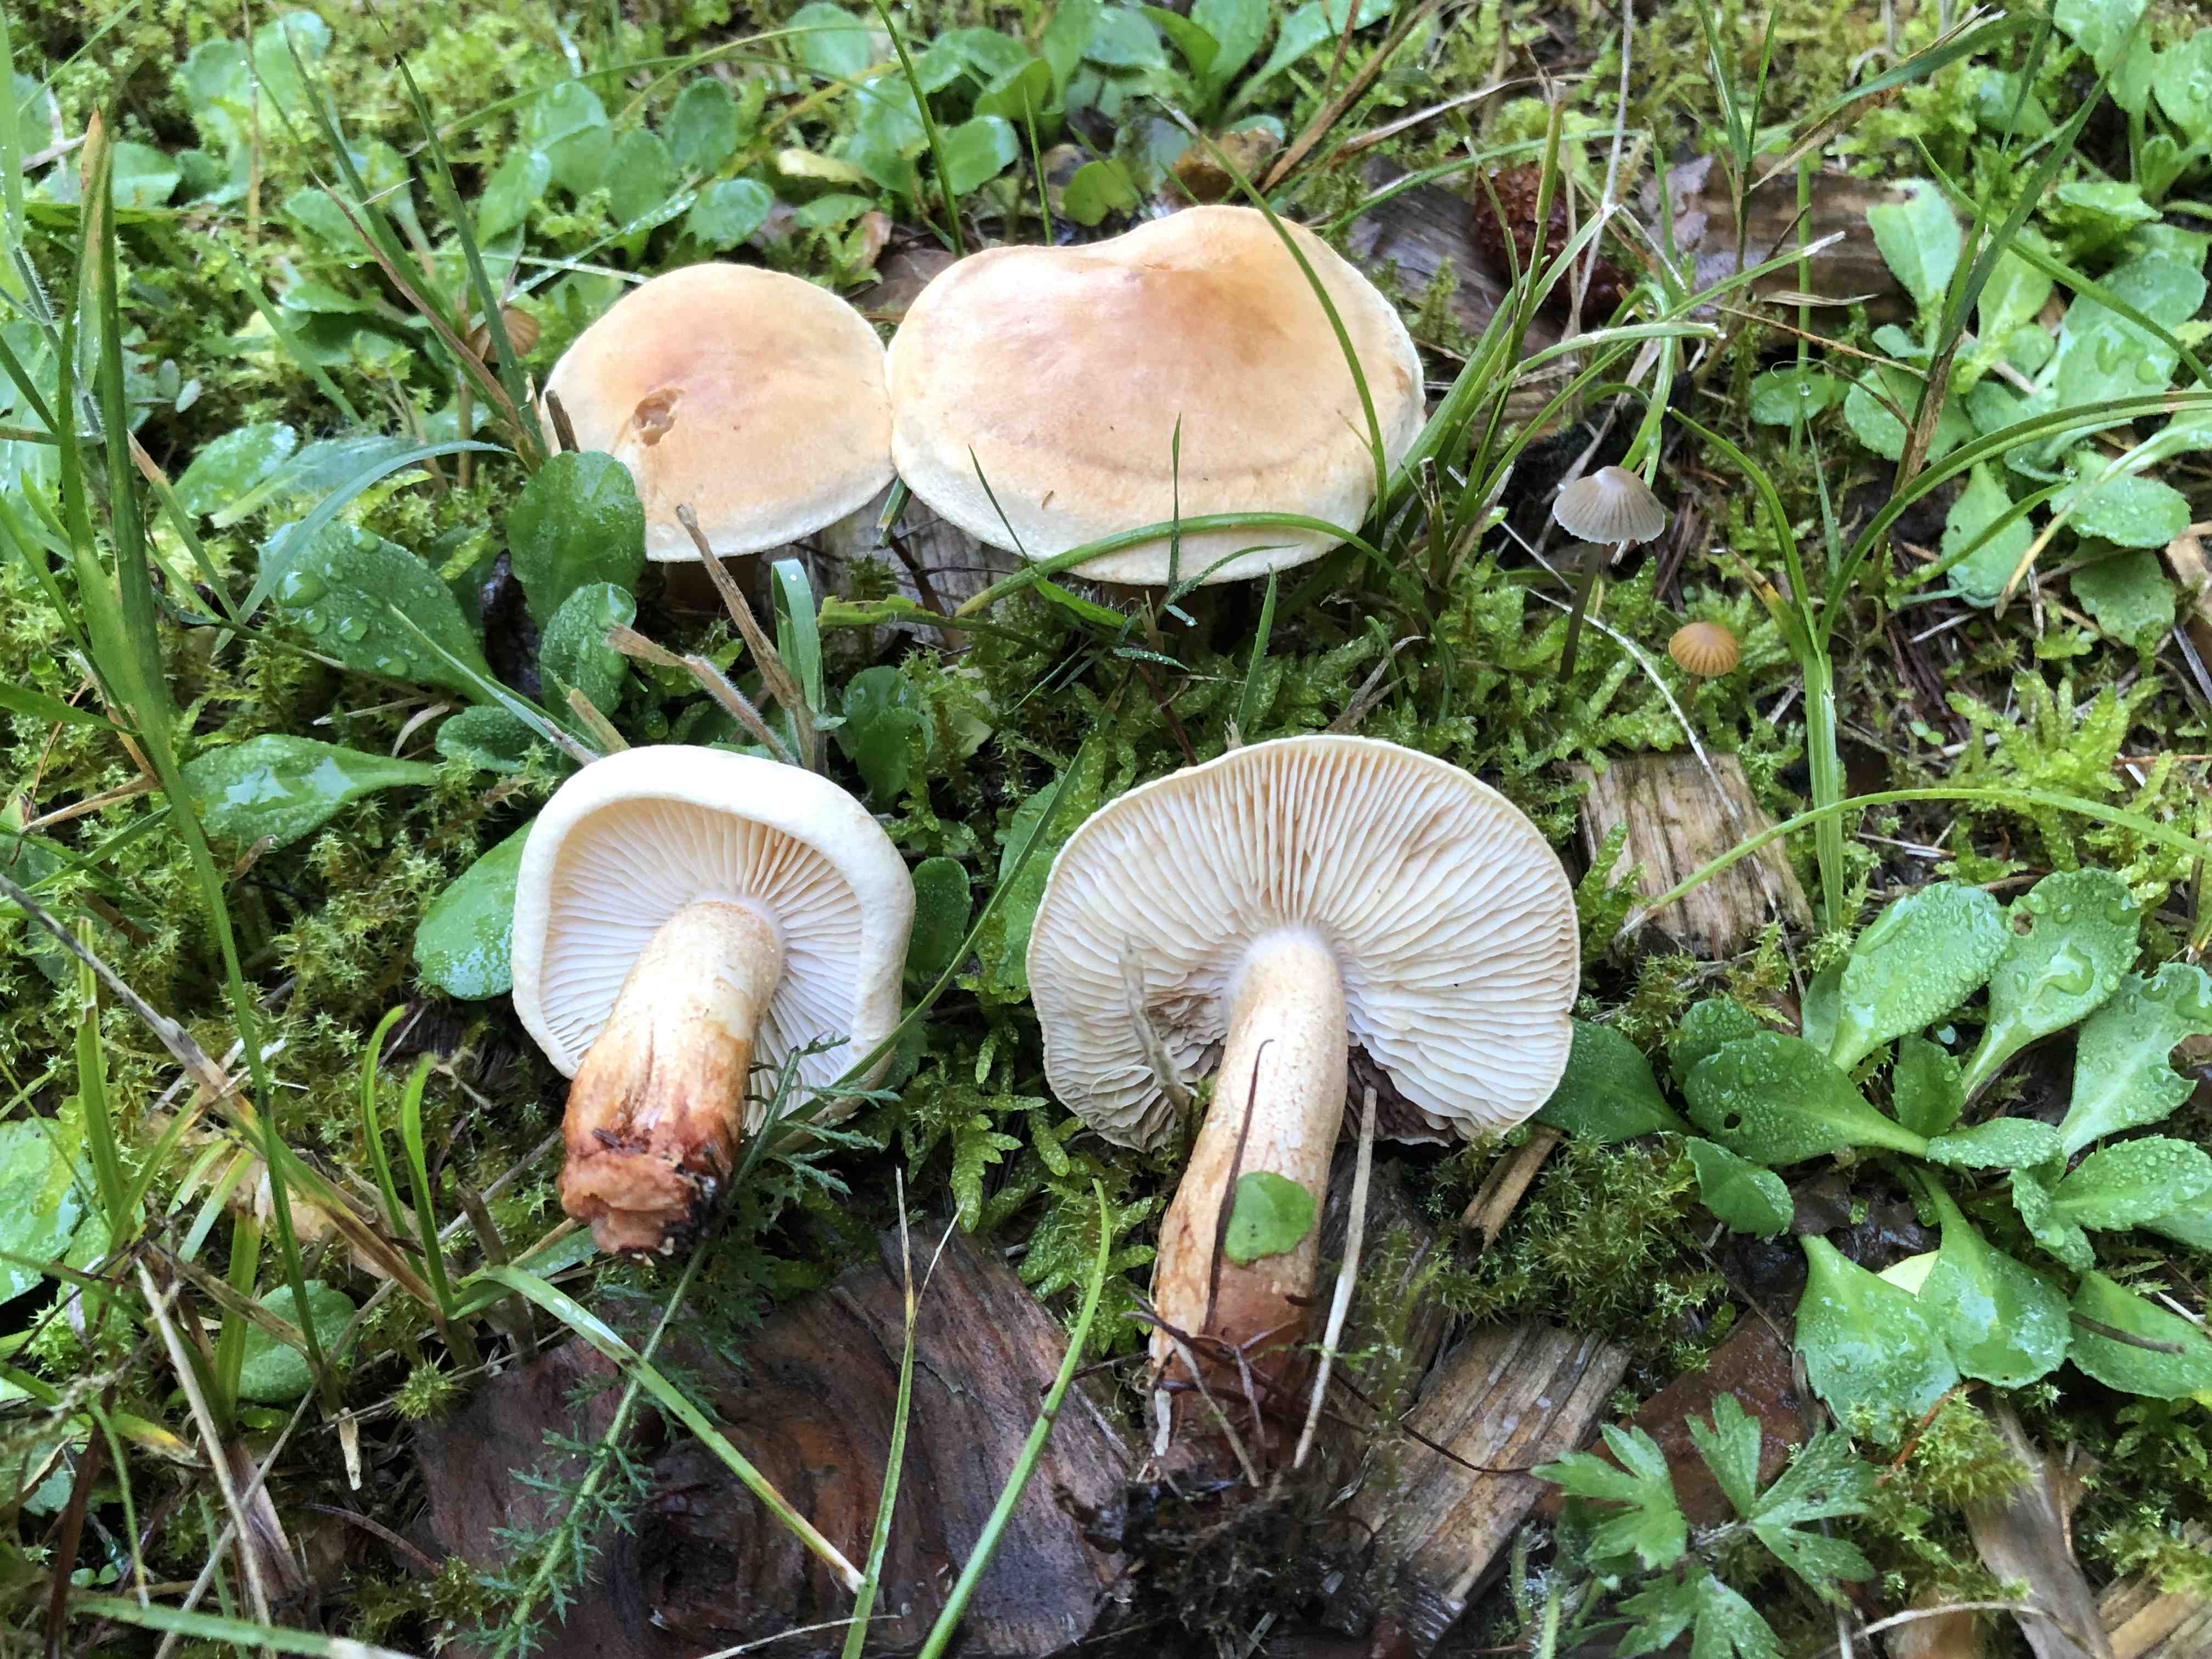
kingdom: Fungi
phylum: Basidiomycota
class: Agaricomycetes
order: Agaricales
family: Tricholomataceae
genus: Tricholoma
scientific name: Tricholoma psammopus
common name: grynstokket ridderhat
